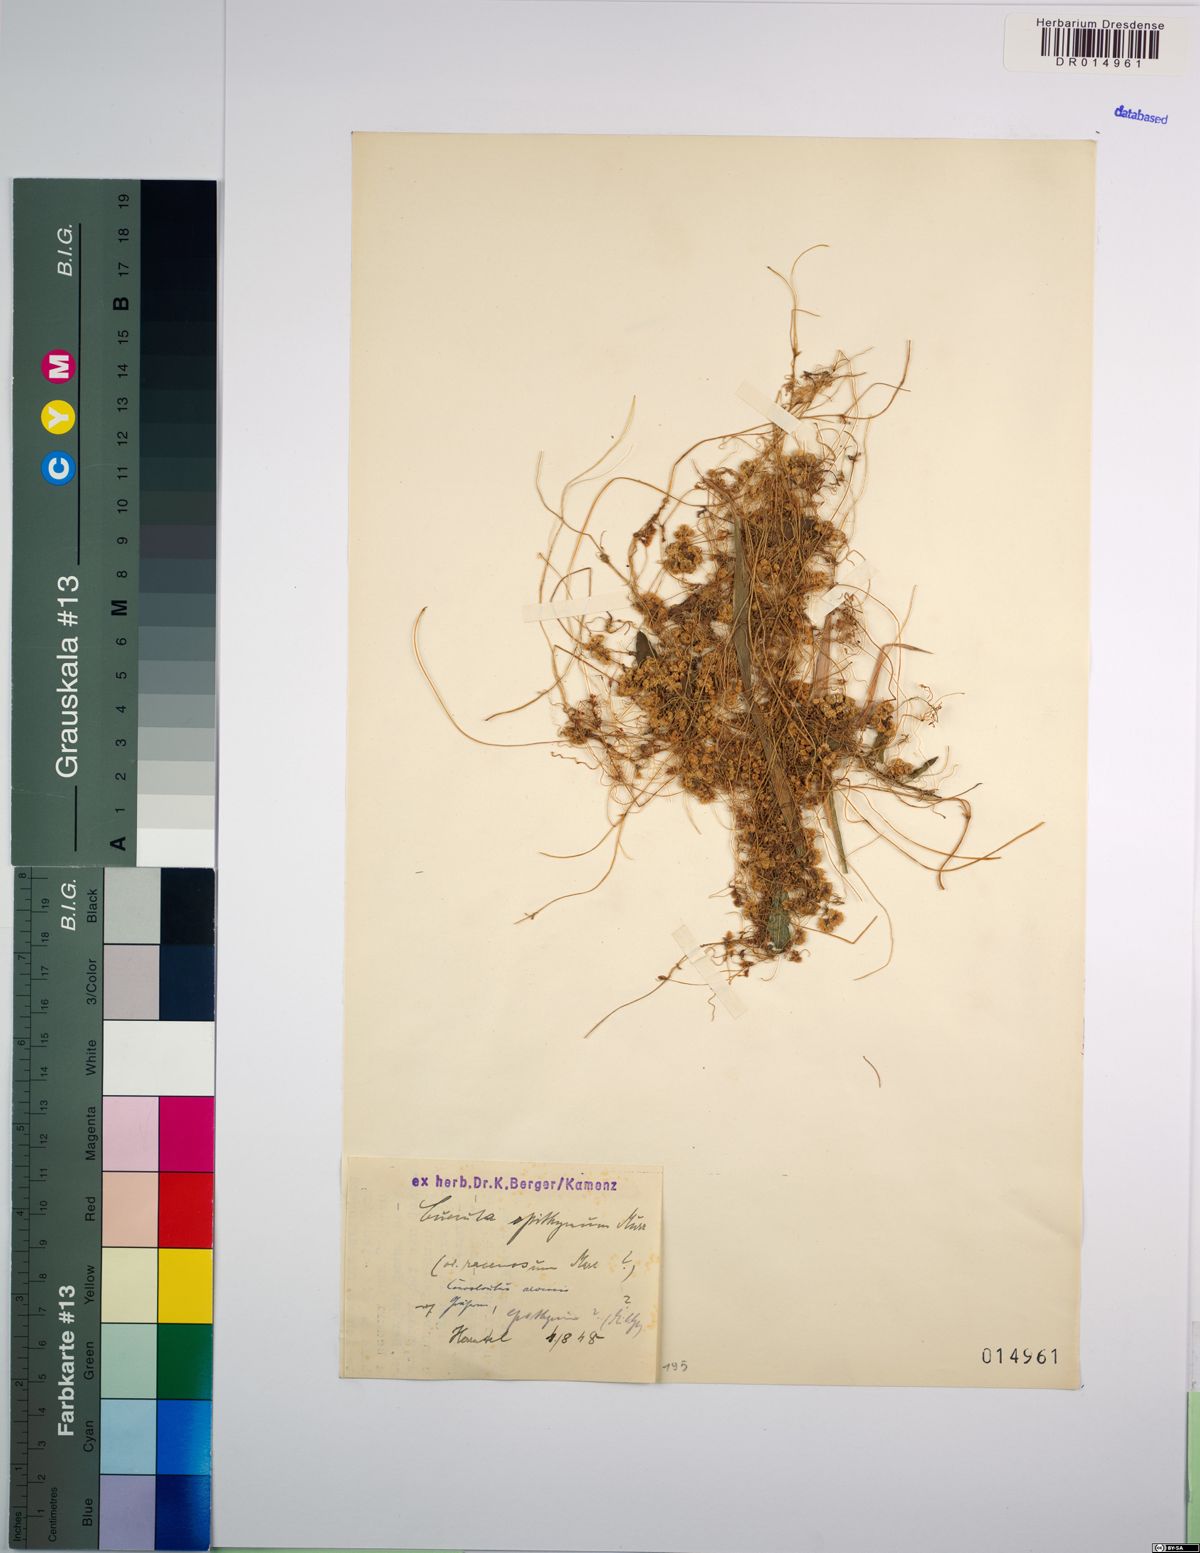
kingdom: Plantae
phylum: Tracheophyta
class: Magnoliopsida
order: Solanales
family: Convolvulaceae
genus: Cuscuta
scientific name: Cuscuta epithymum
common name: Clover dodder
